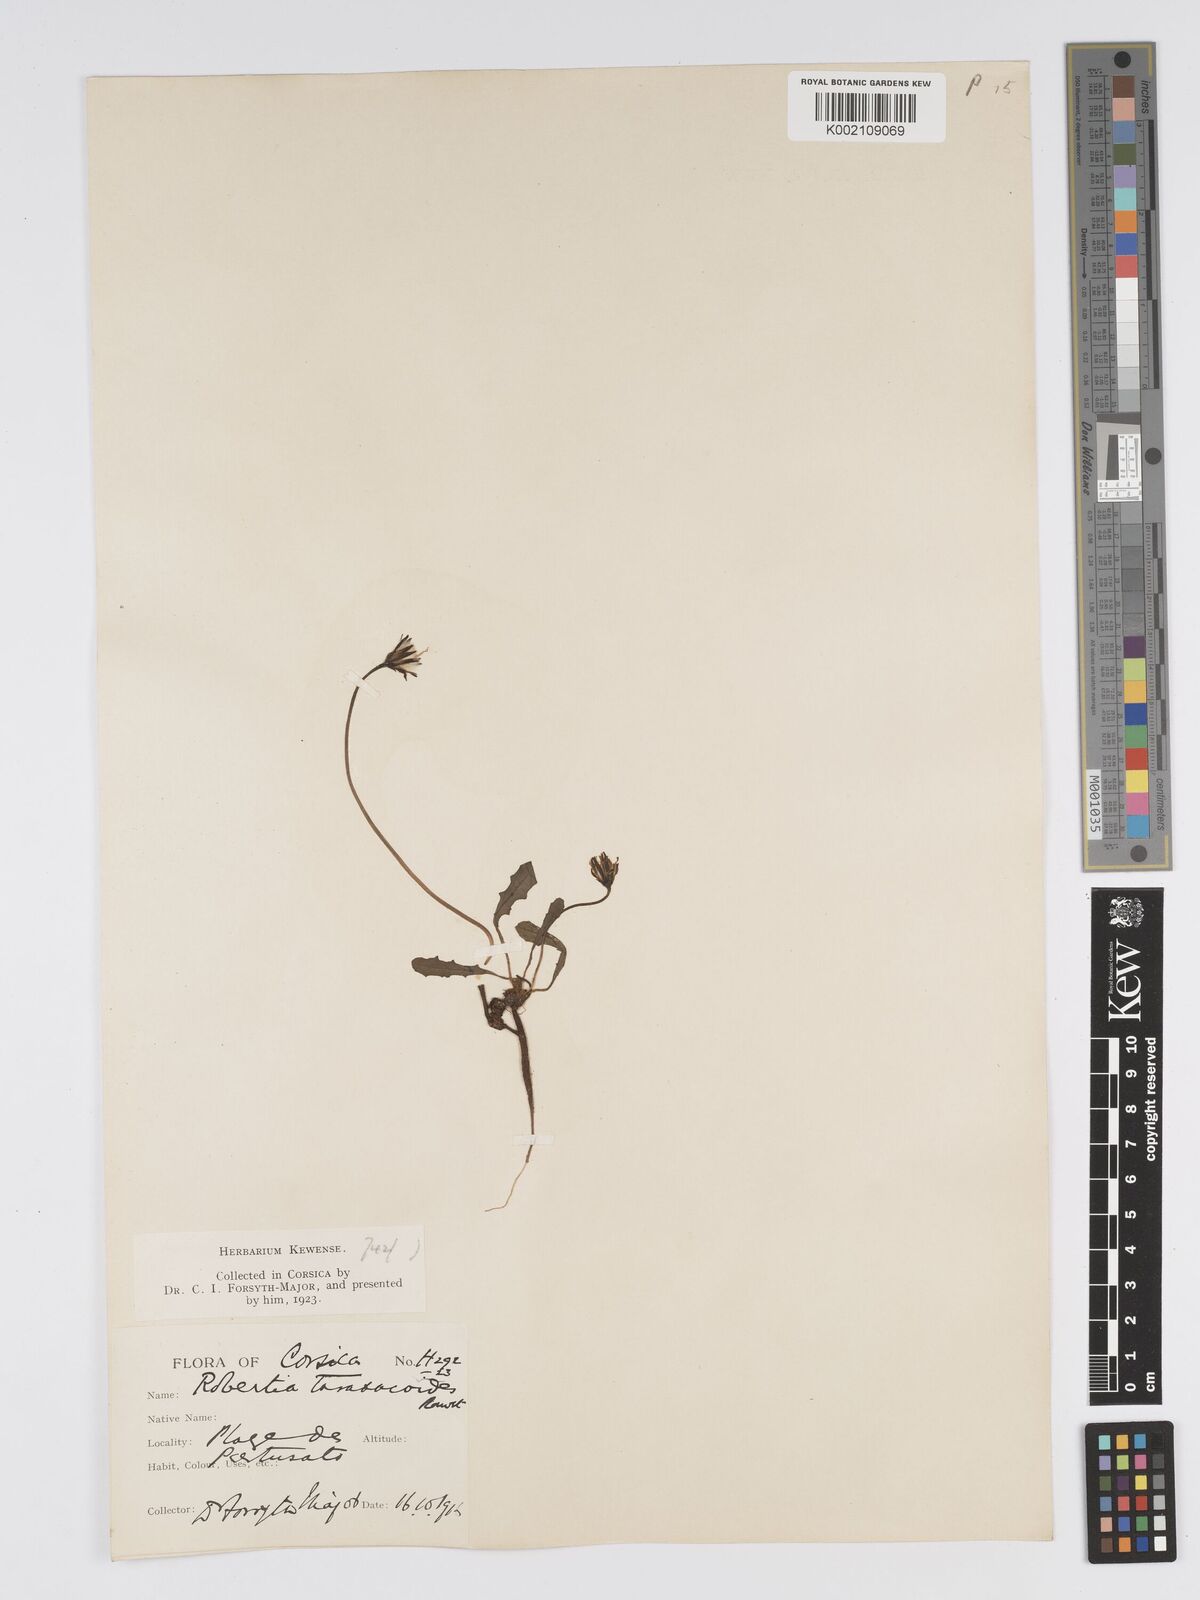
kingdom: Plantae
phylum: Tracheophyta
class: Magnoliopsida
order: Asterales
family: Asteraceae
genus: Crepis
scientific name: Crepis bellidifolia
